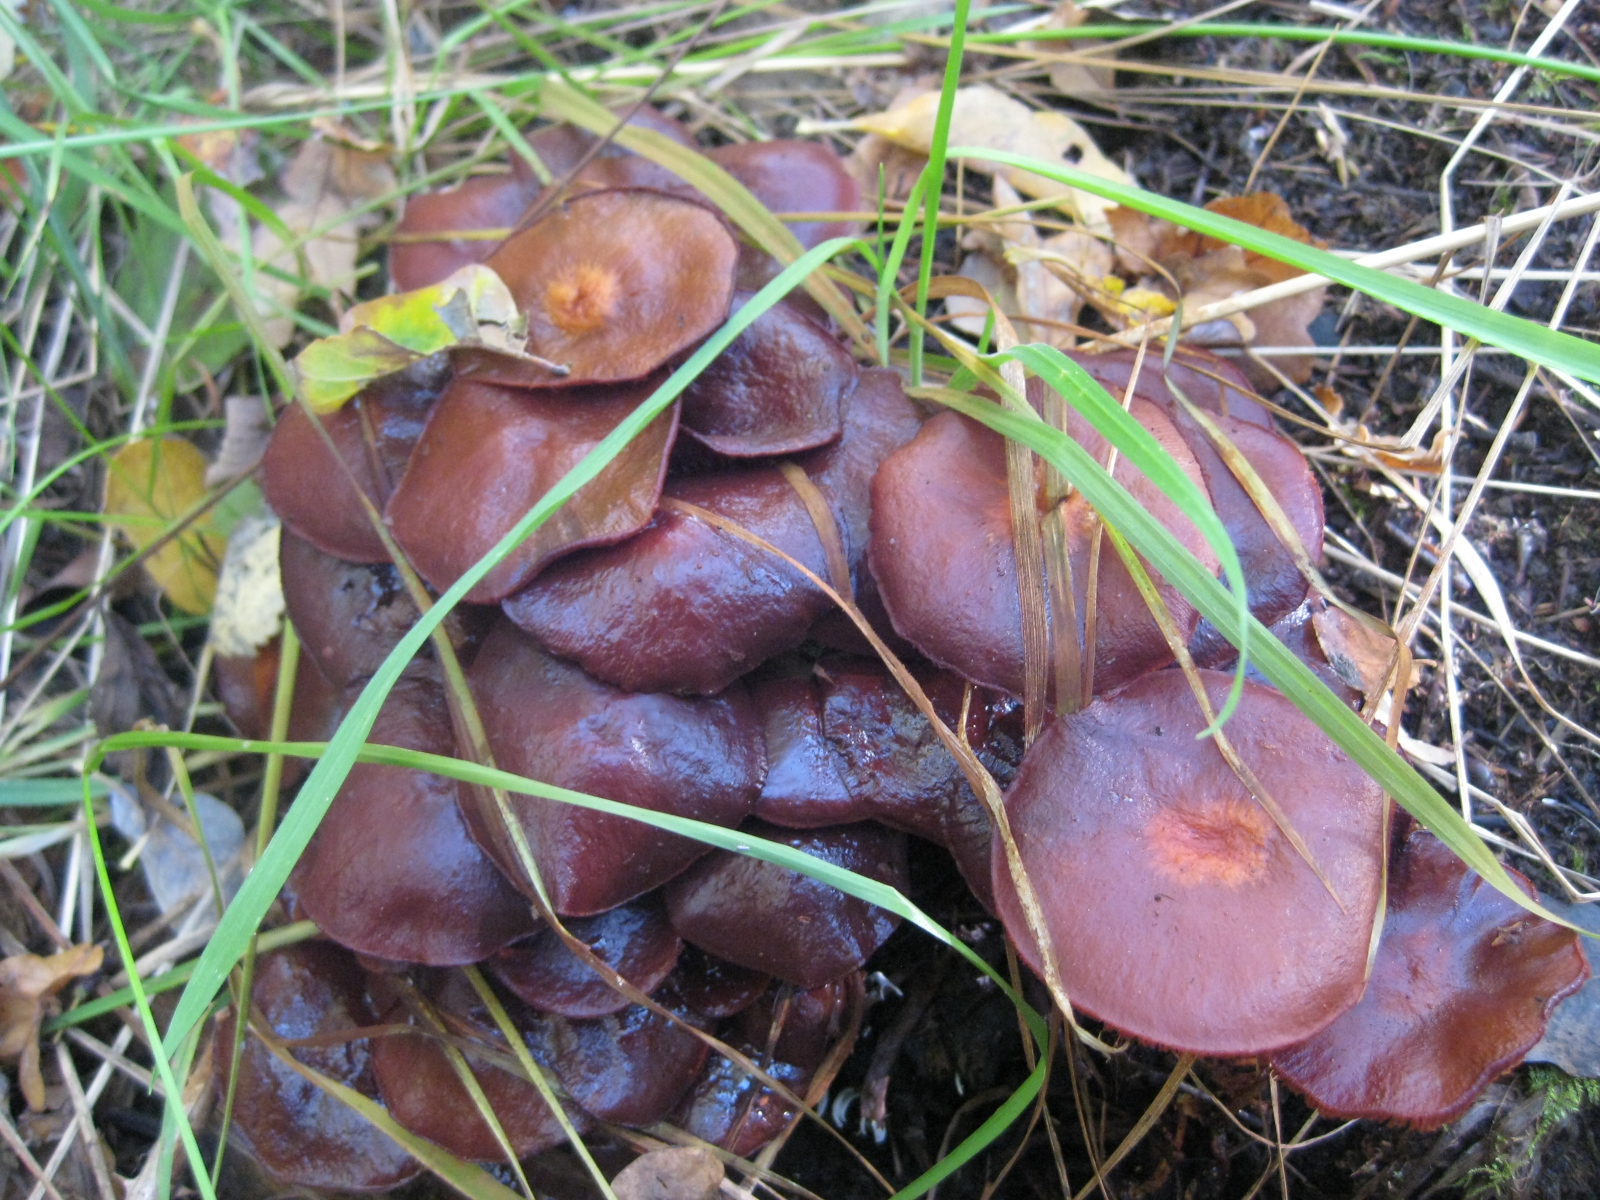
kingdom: Fungi
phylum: Basidiomycota
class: Agaricomycetes
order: Agaricales
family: Strophariaceae
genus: Kuehneromyces
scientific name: Kuehneromyces mutabilis
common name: foranderlig skælhat
